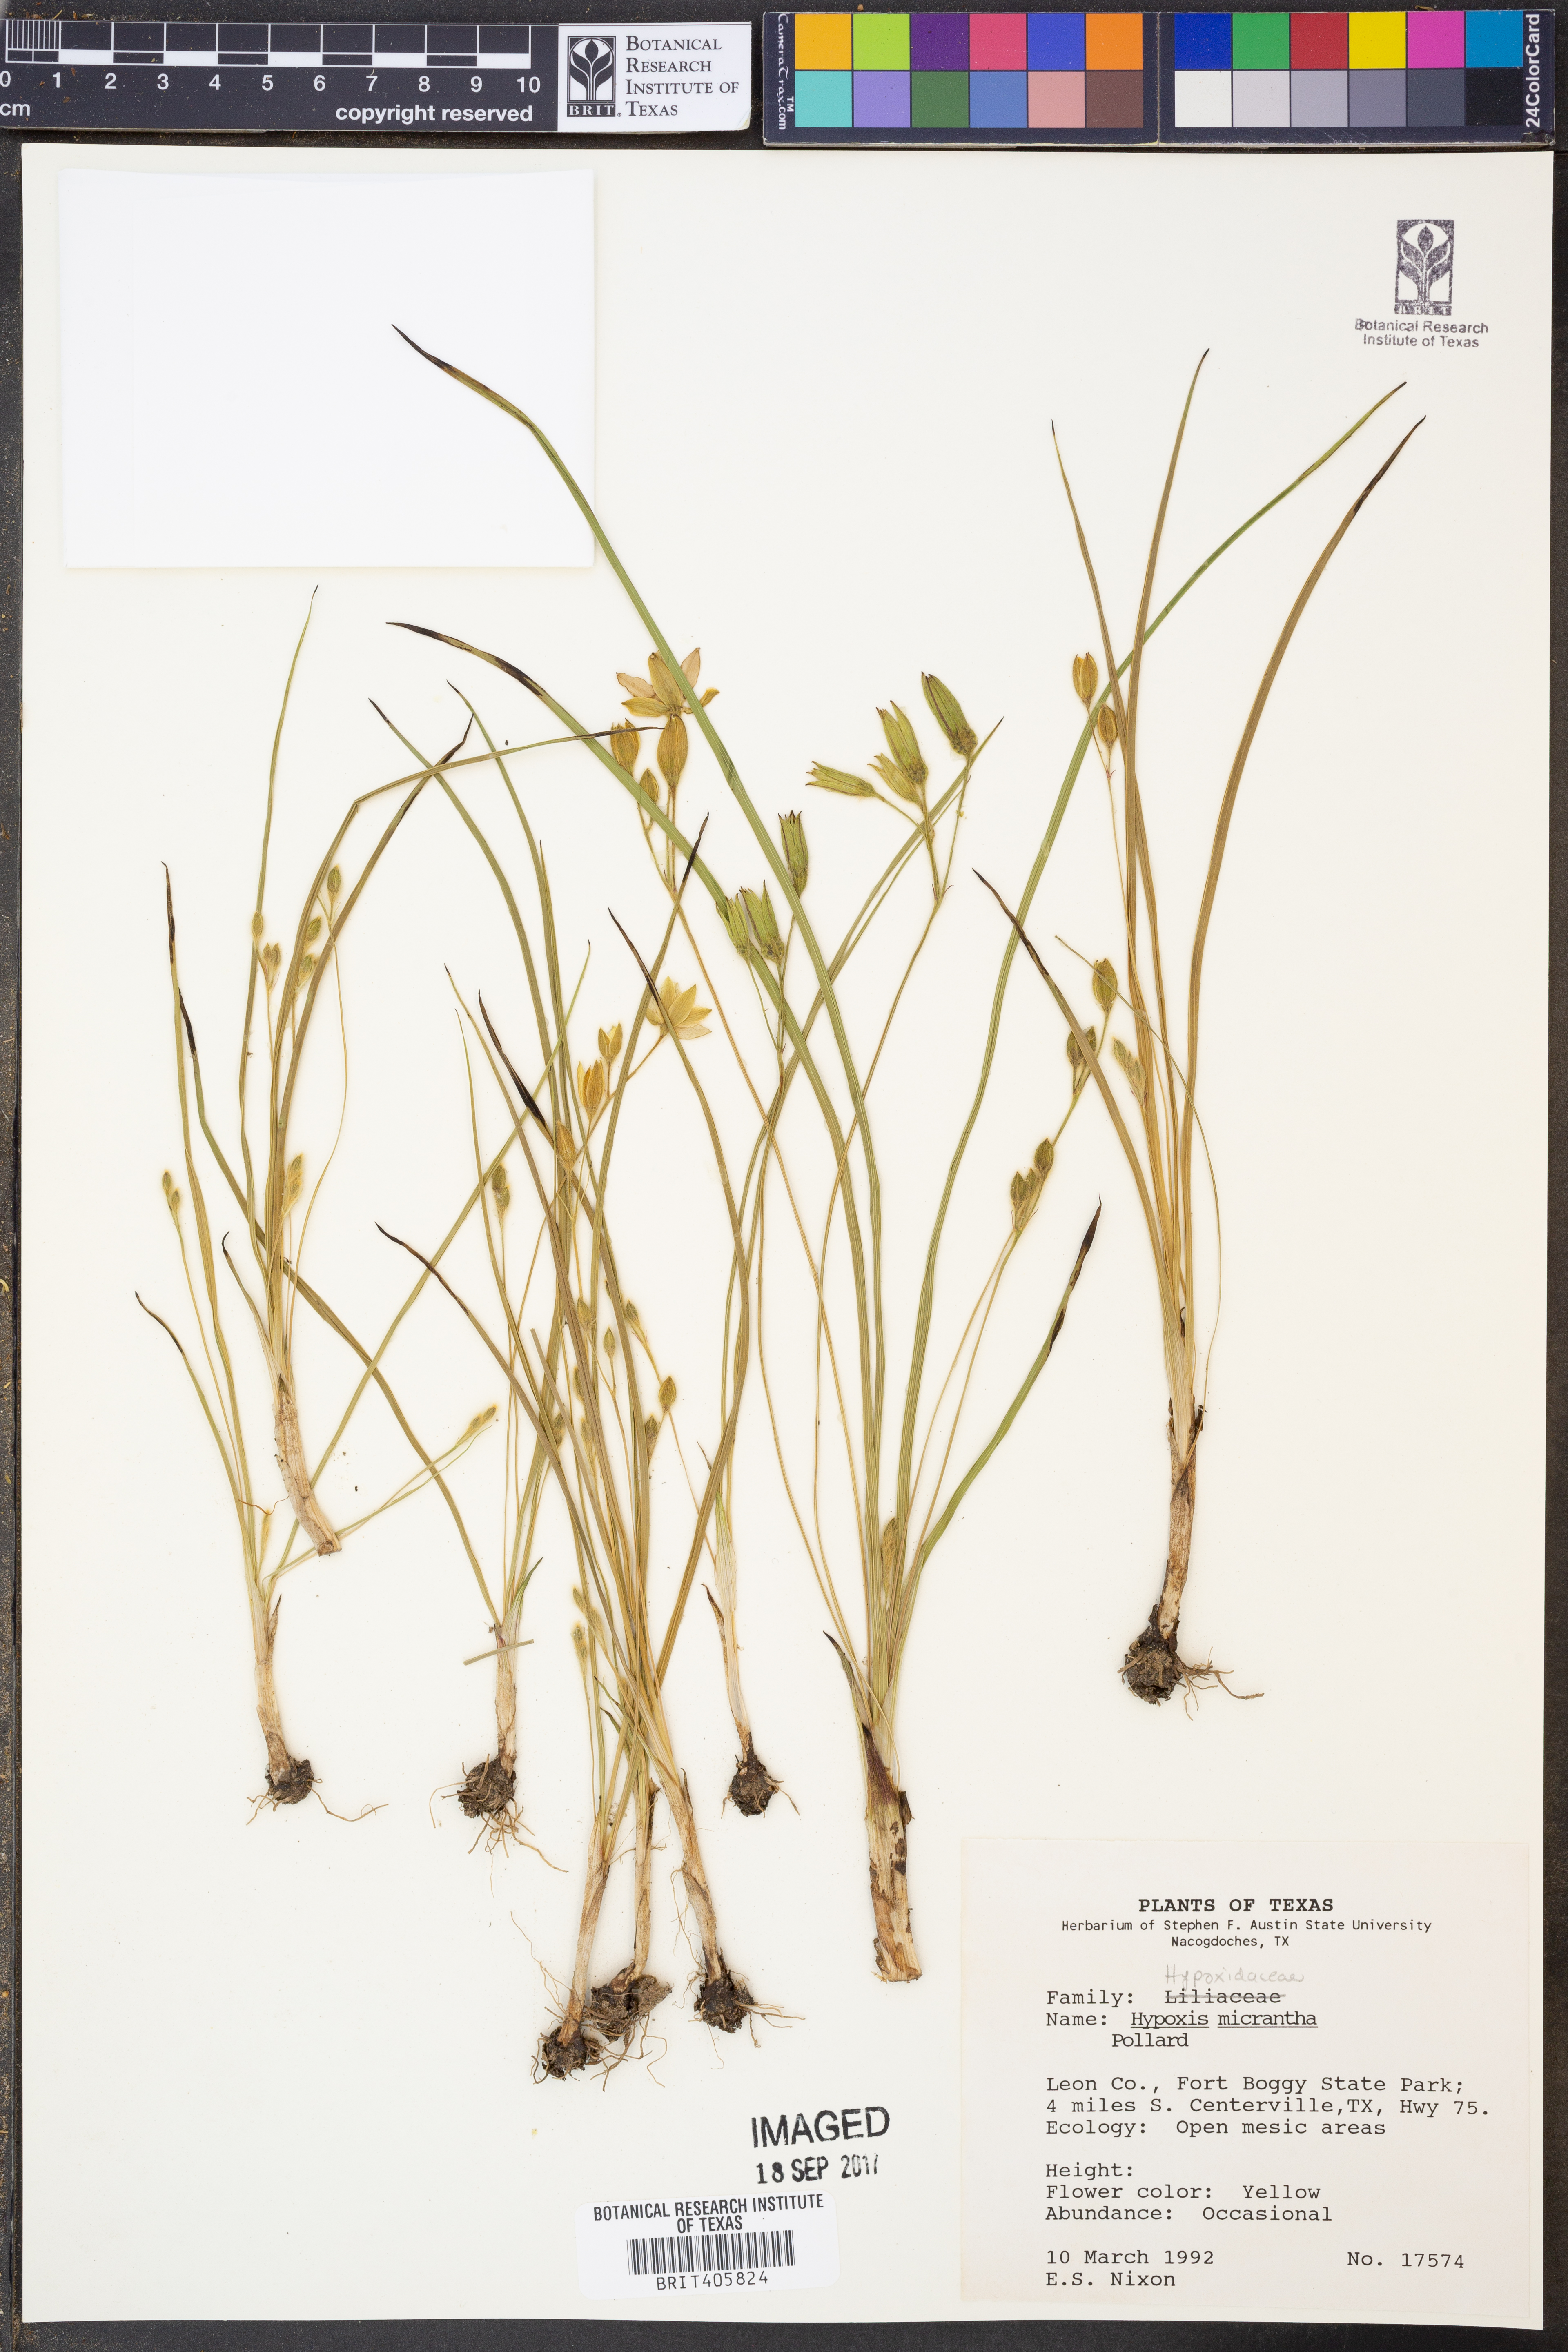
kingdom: Plantae
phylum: Tracheophyta
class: Liliopsida
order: Asparagales
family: Hypoxidaceae
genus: Hypoxis
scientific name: Hypoxis hirsuta
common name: Common goldstar
